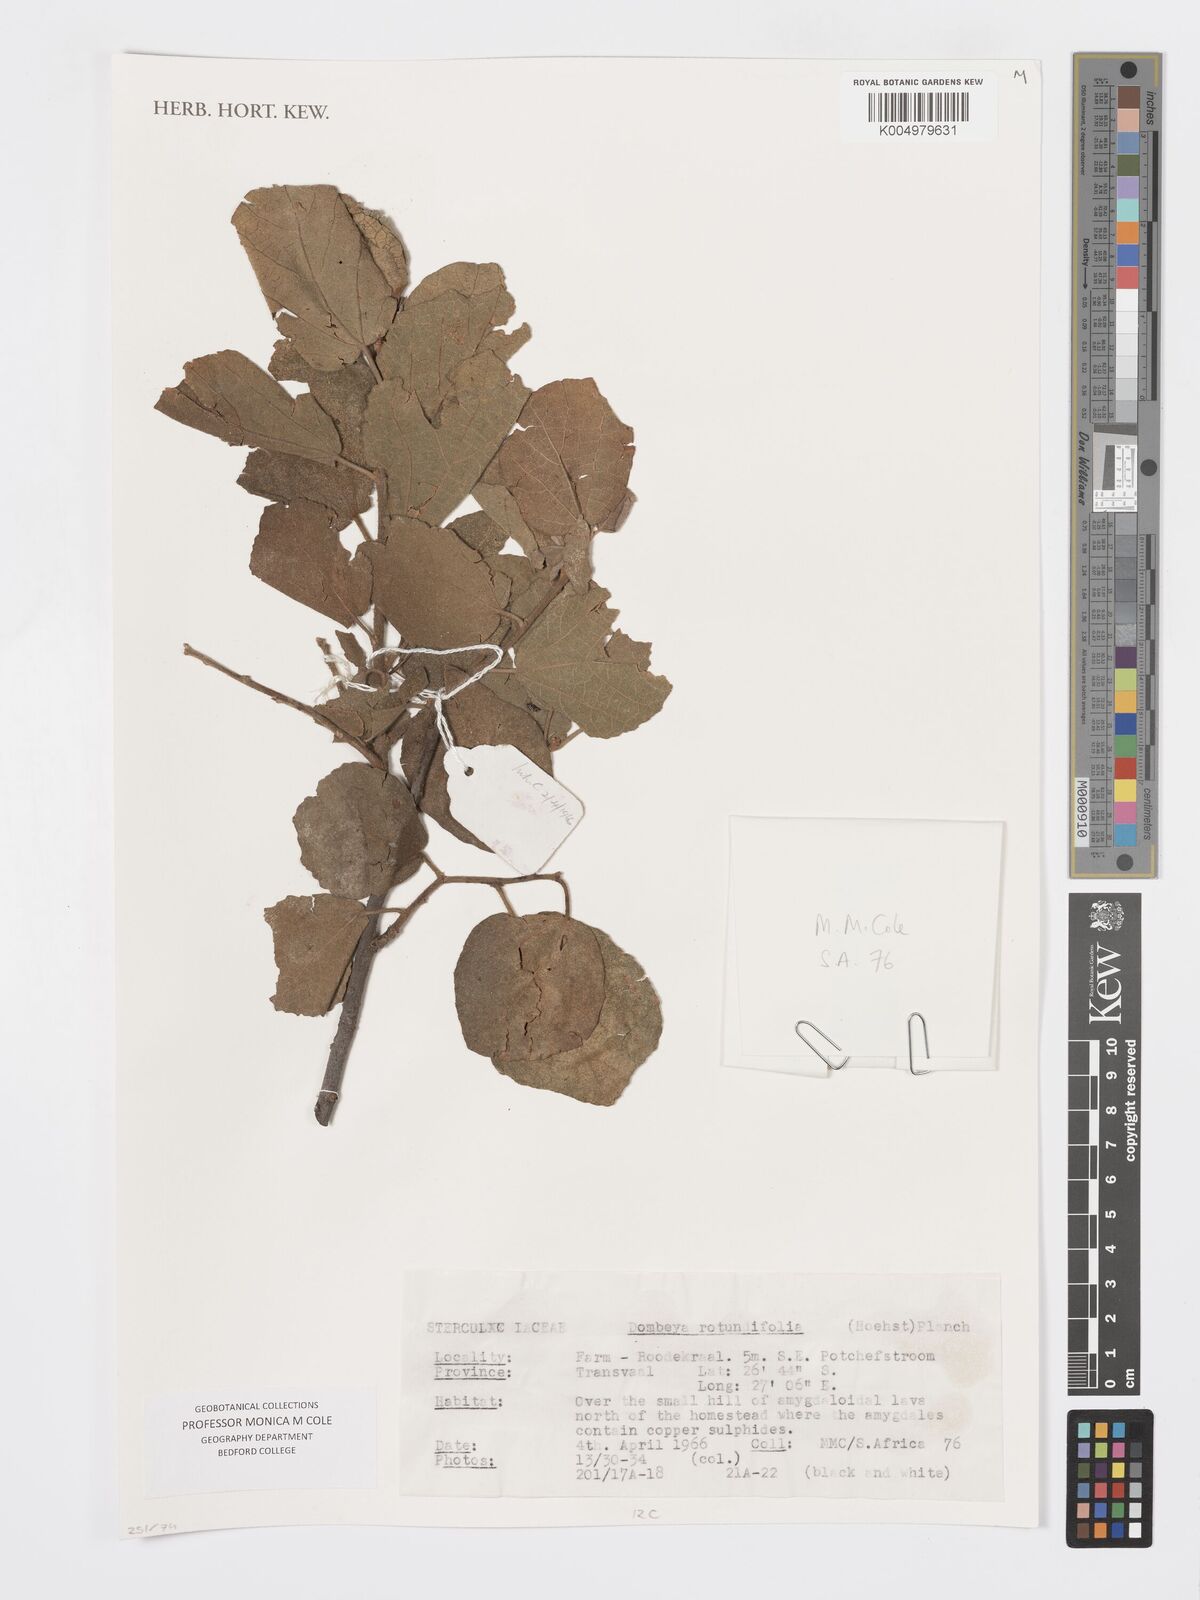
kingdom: Plantae
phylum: Tracheophyta
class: Magnoliopsida
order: Malvales
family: Malvaceae
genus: Dombeya
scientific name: Dombeya rotundifolia
